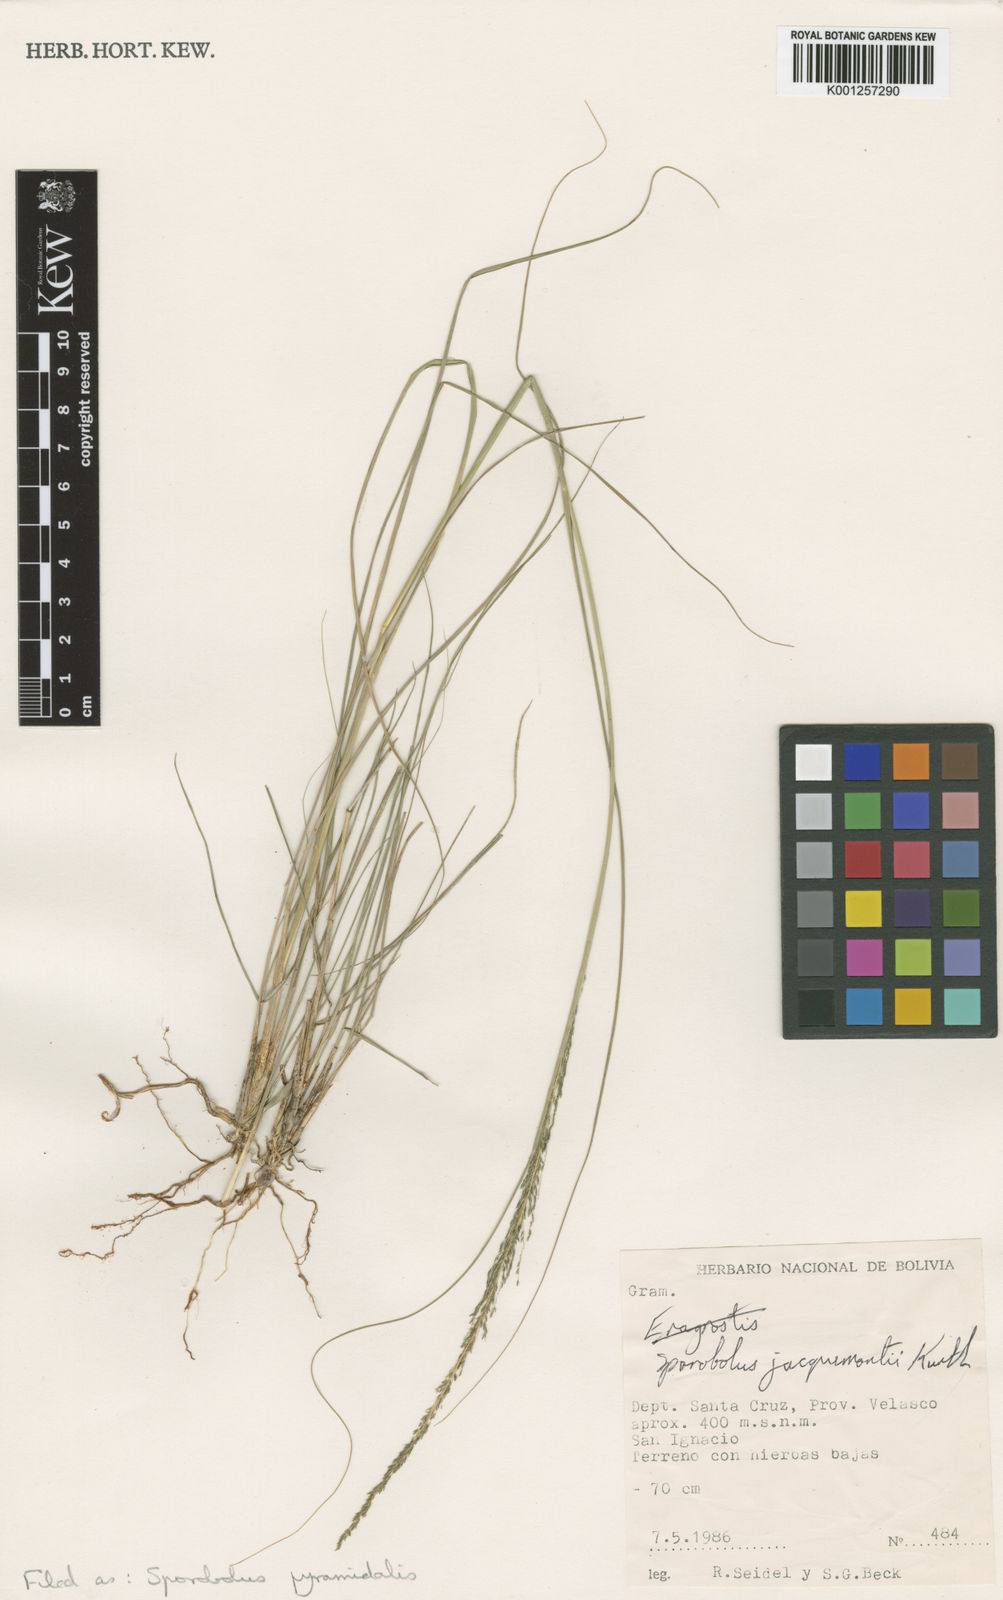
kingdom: Plantae
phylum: Tracheophyta
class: Liliopsida
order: Poales
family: Poaceae
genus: Sporobolus
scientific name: Sporobolus pyramidalis
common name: West indian dropseed
